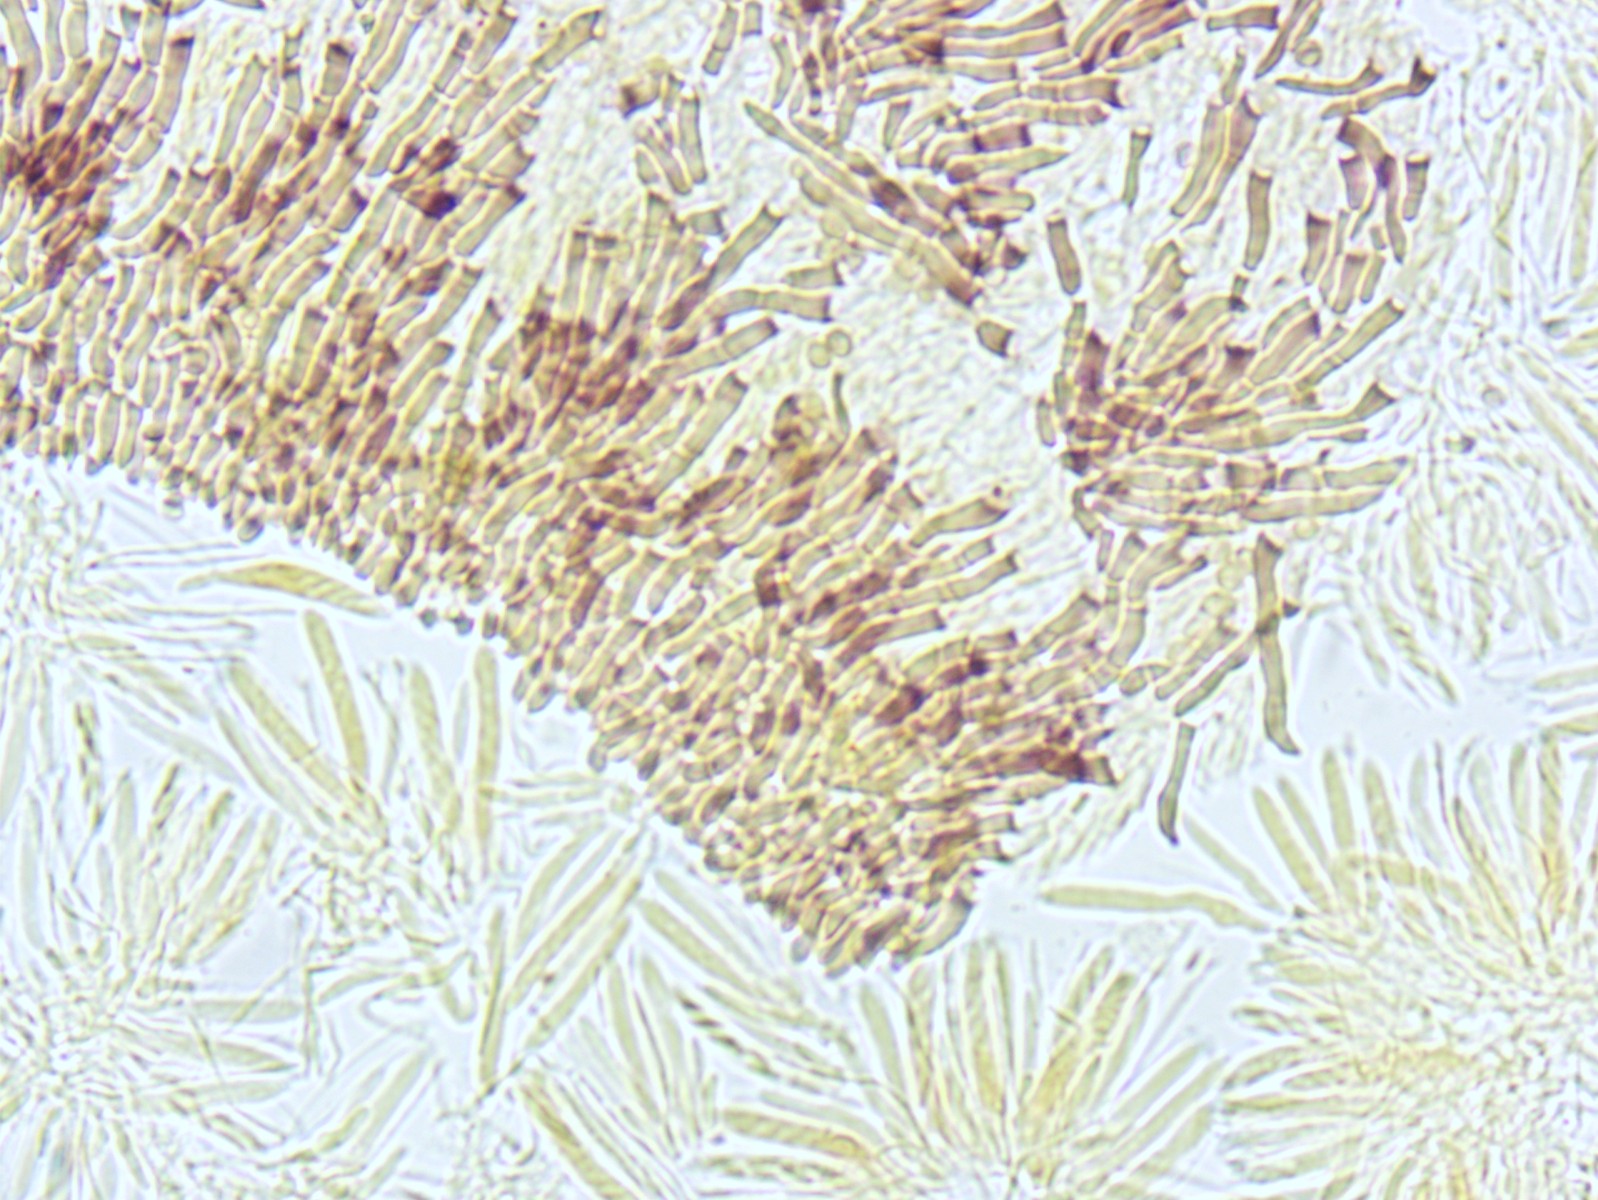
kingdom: Fungi
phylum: Ascomycota
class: Leotiomycetes
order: Helotiales
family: Hyaloscyphaceae
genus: Hyalopeziza
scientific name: Hyalopeziza millepunctata
